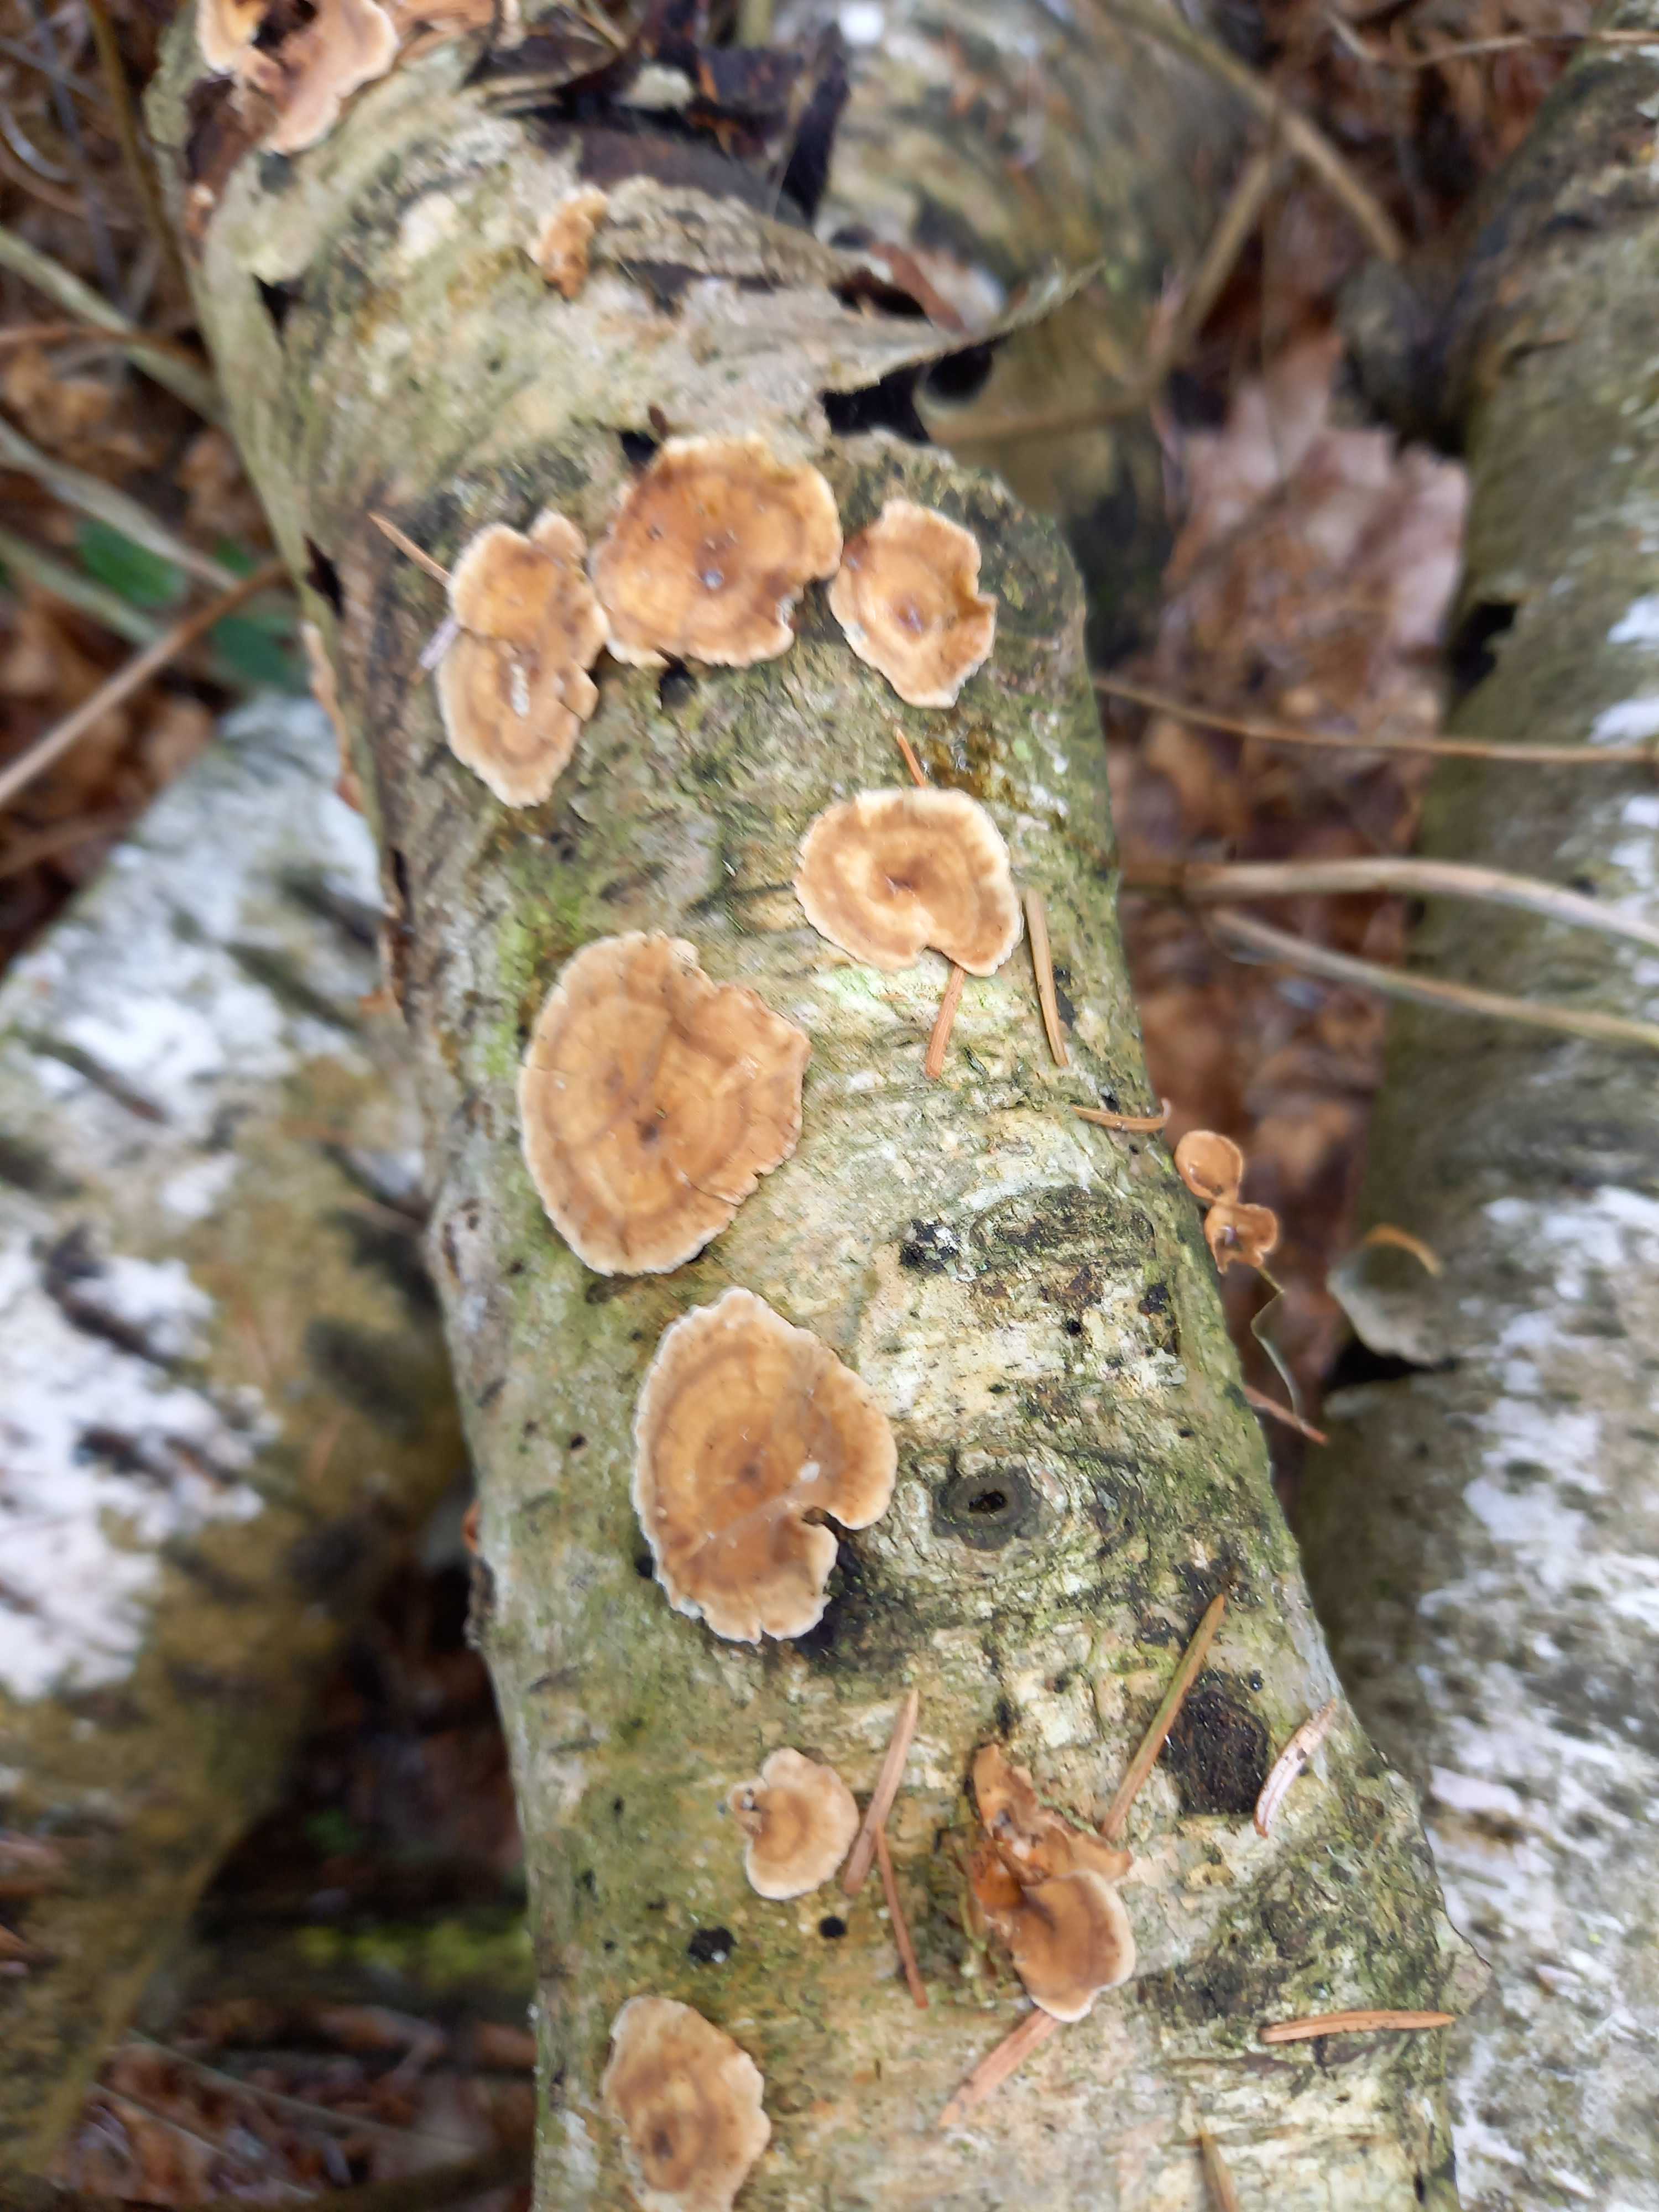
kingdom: Fungi
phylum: Basidiomycota
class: Agaricomycetes
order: Russulales
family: Stereaceae
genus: Stereum
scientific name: Stereum
